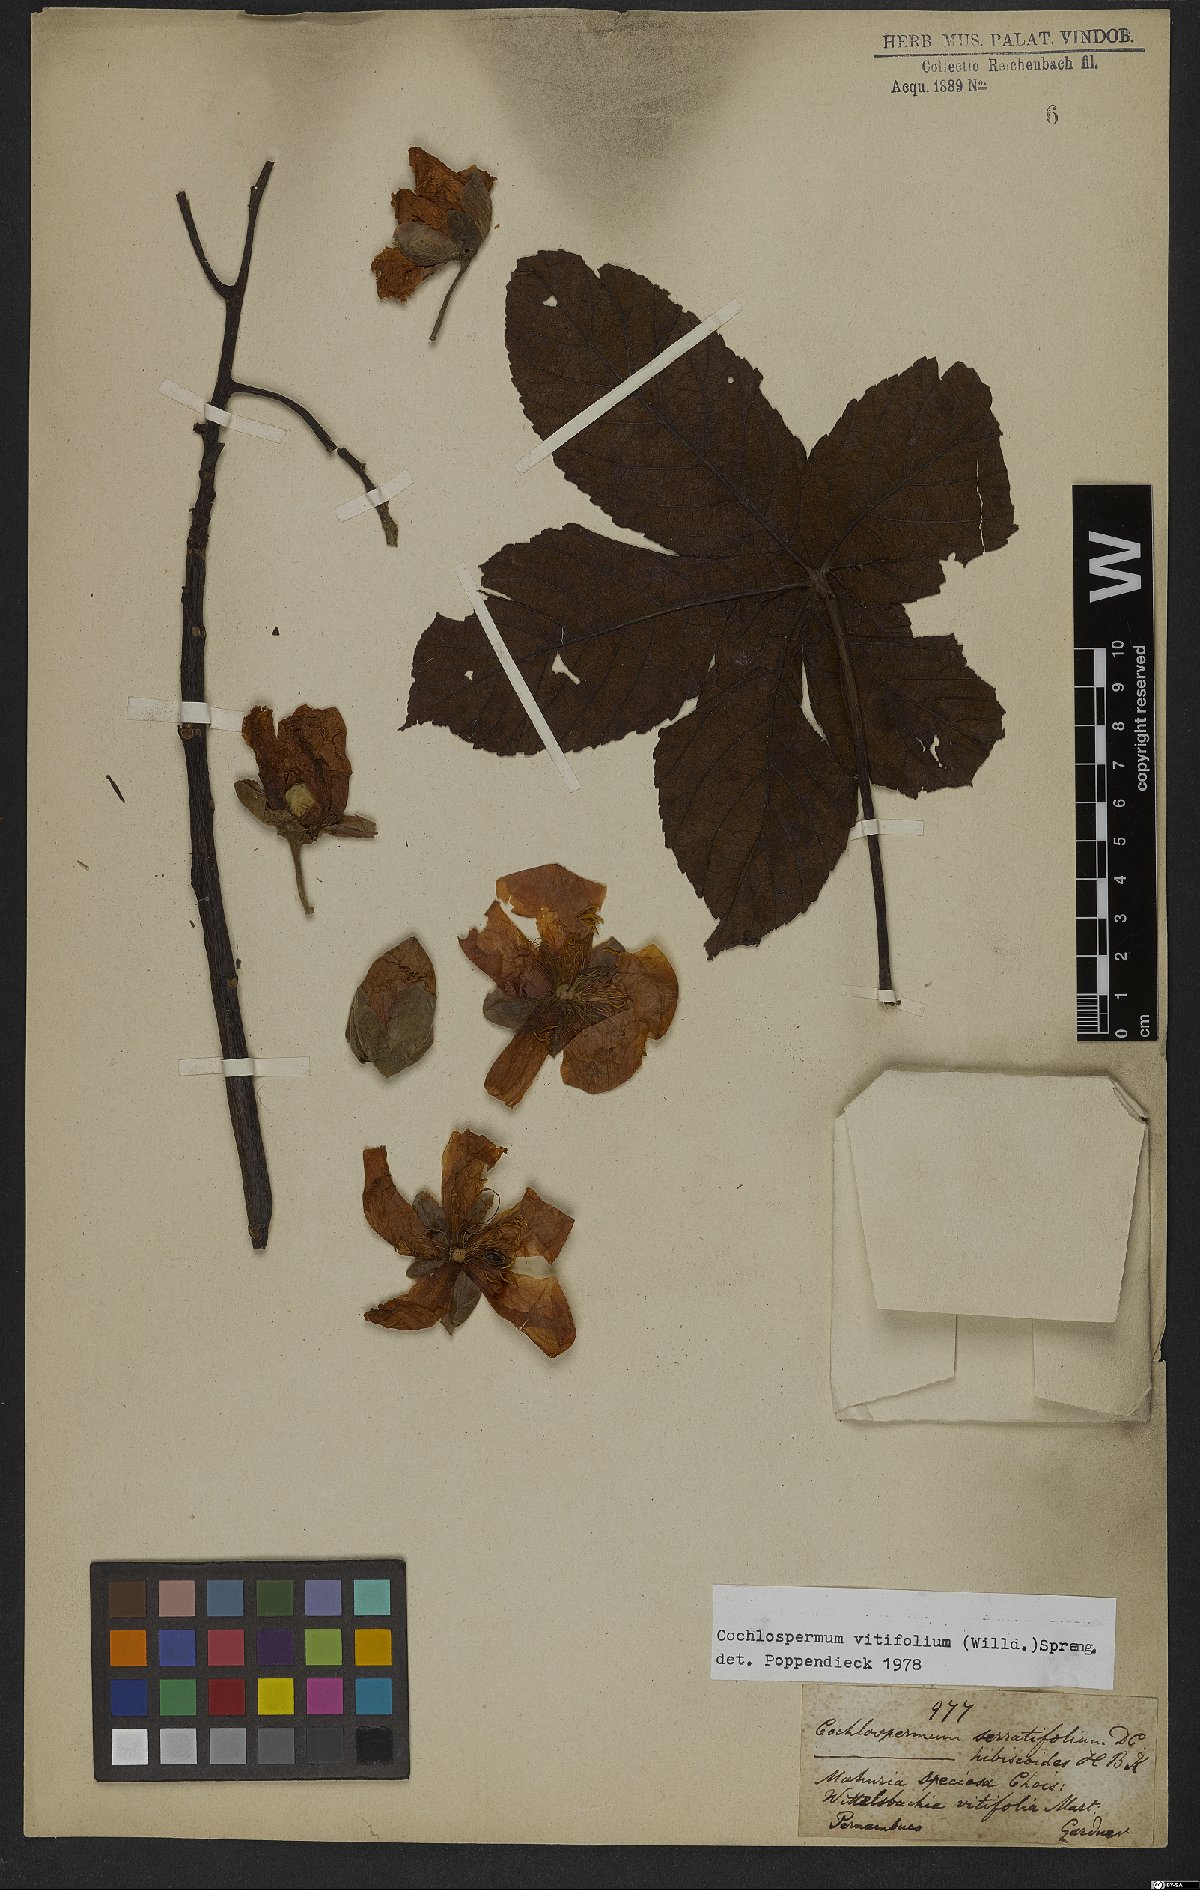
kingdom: Plantae
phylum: Tracheophyta
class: Magnoliopsida
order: Malvales
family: Cochlospermaceae
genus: Cochlospermum
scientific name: Cochlospermum vitifolium
